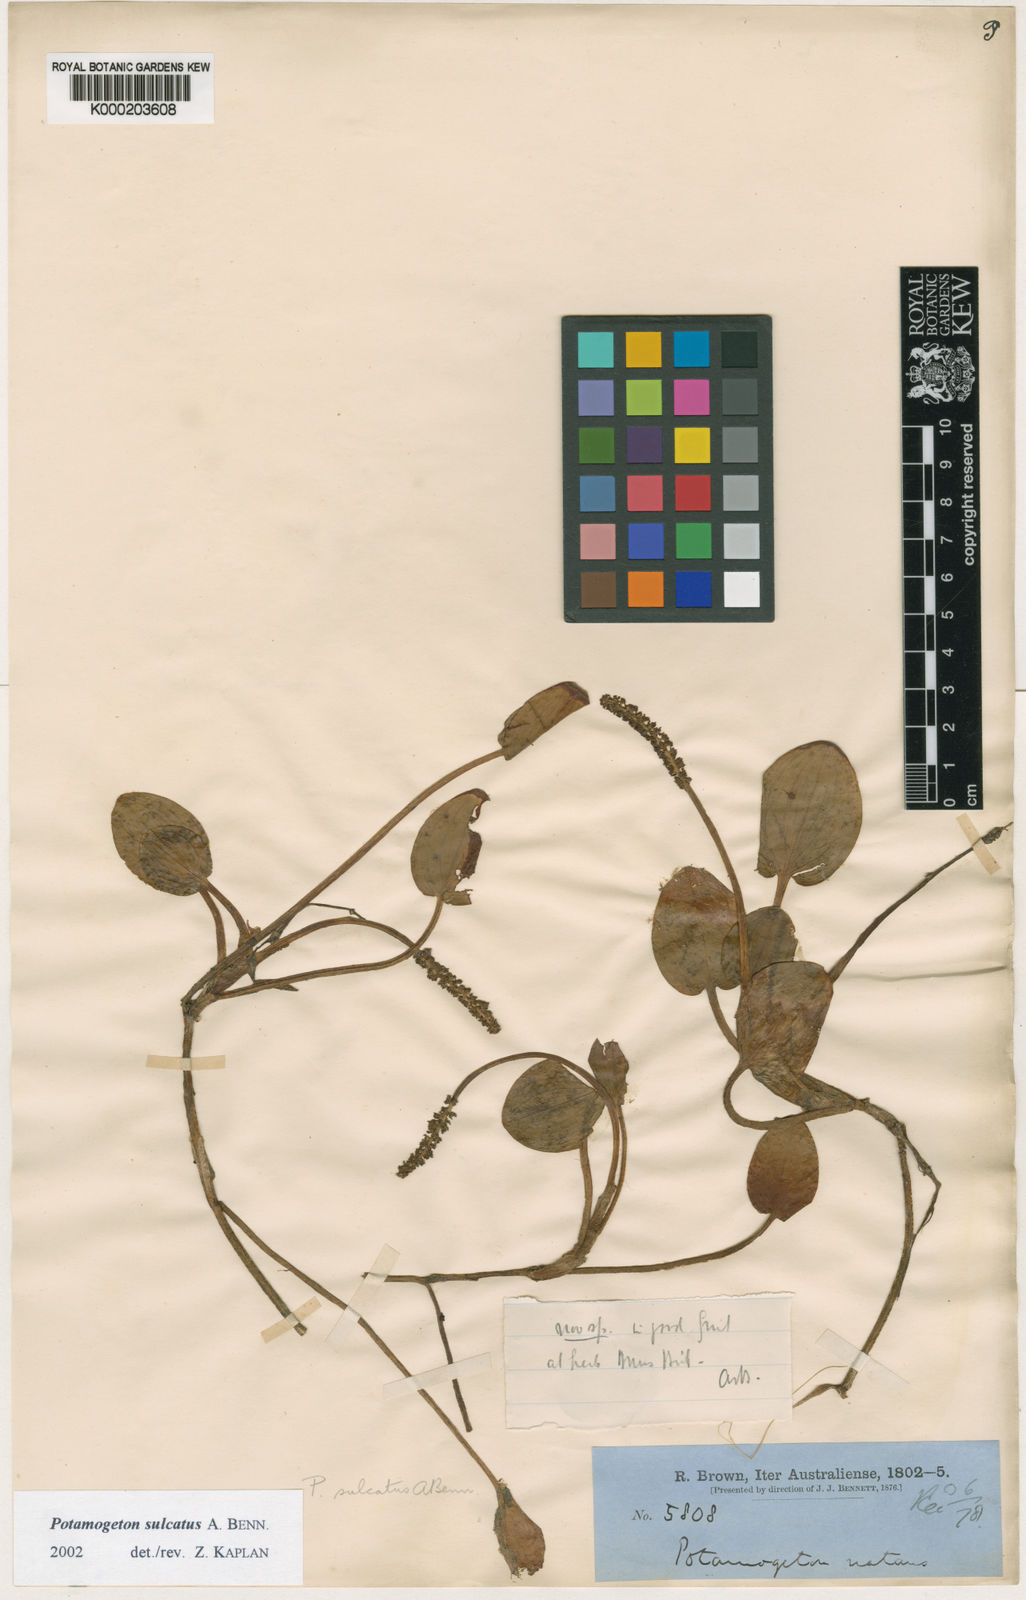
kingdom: Plantae
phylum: Tracheophyta
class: Liliopsida
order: Alismatales
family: Potamogetonaceae
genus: Potamogeton
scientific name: Potamogeton sulcatus
